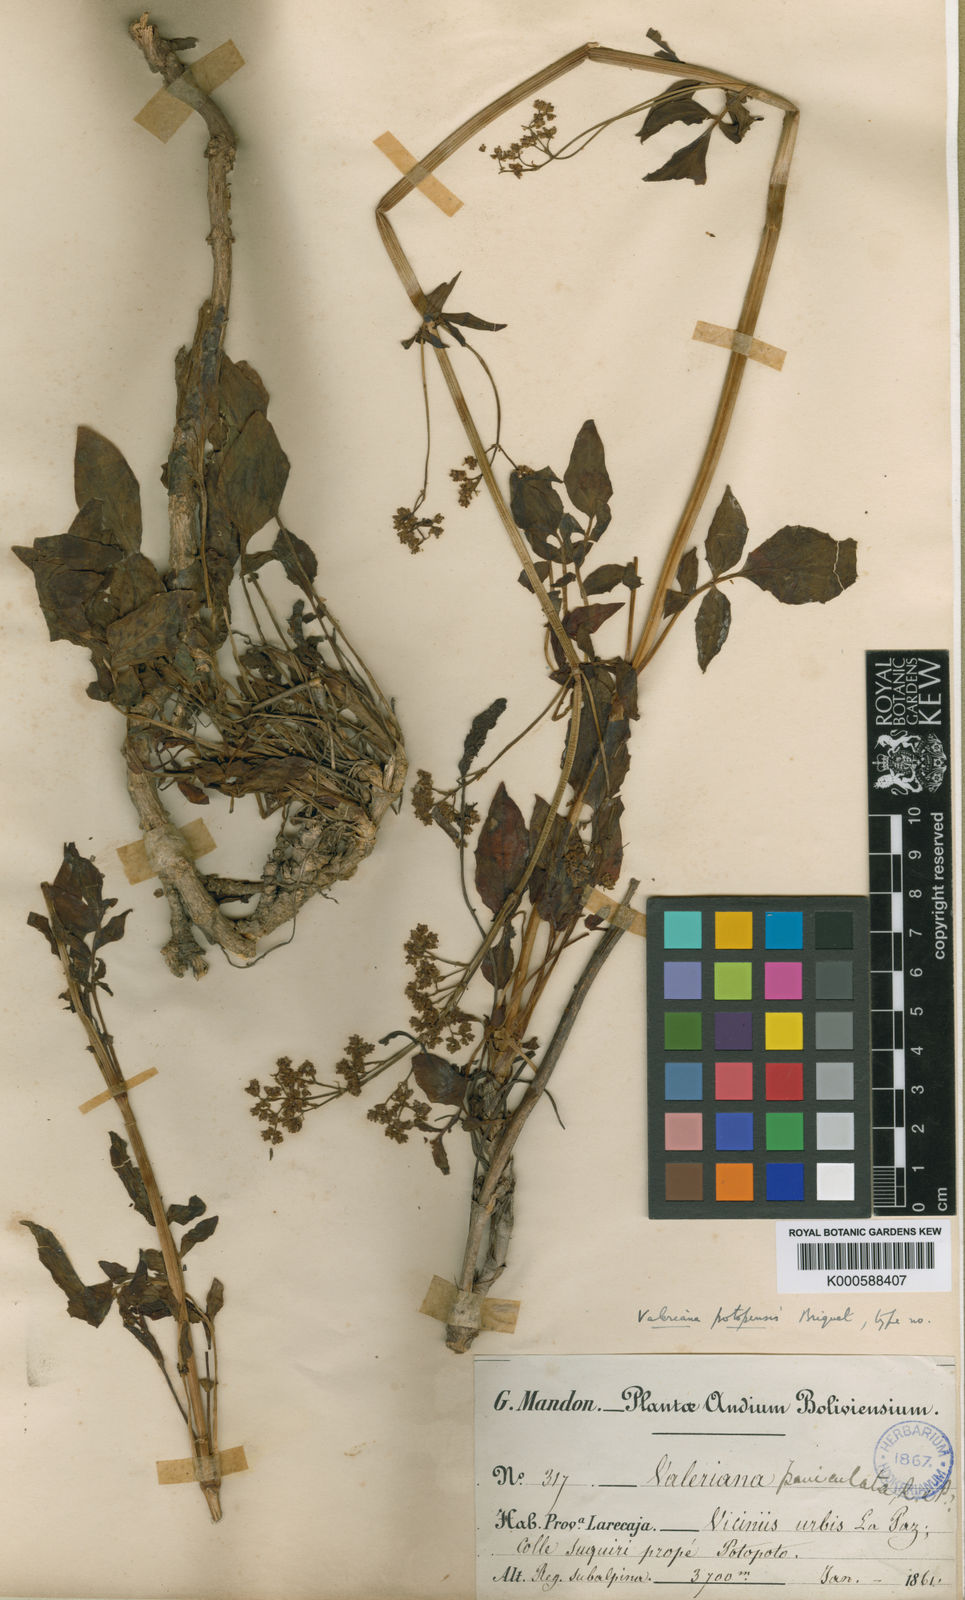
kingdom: Plantae
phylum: Tracheophyta
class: Magnoliopsida
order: Dipsacales
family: Caprifoliaceae
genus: Valeriana
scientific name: Valeriana potopensis
